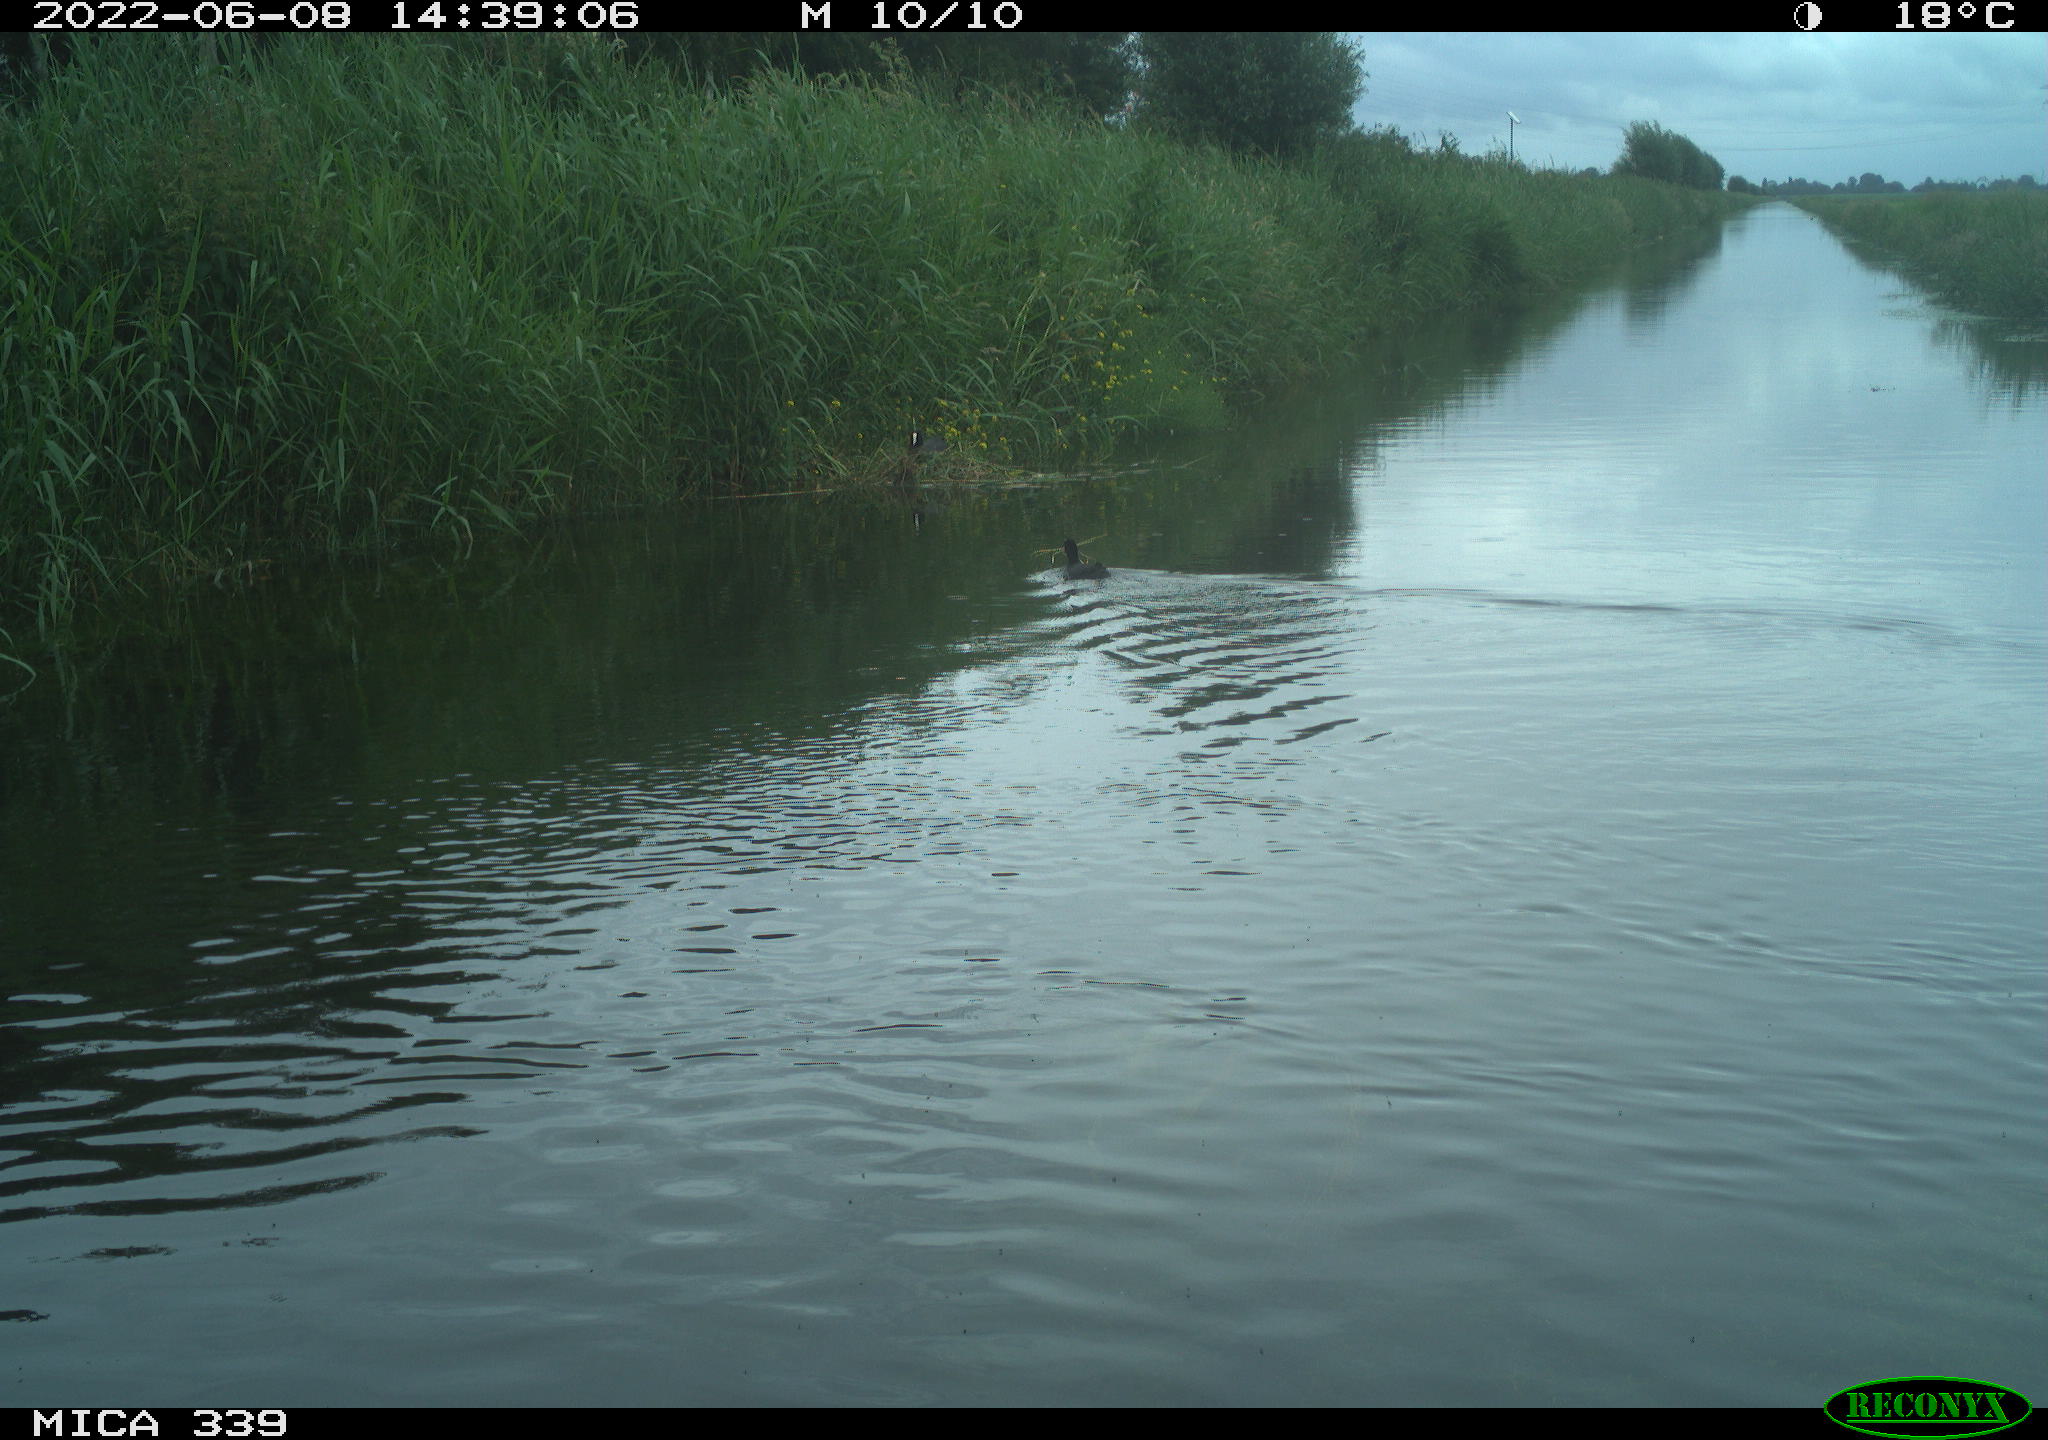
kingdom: Animalia
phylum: Chordata
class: Aves
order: Gruiformes
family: Rallidae
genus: Fulica
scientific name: Fulica atra
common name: Eurasian coot
